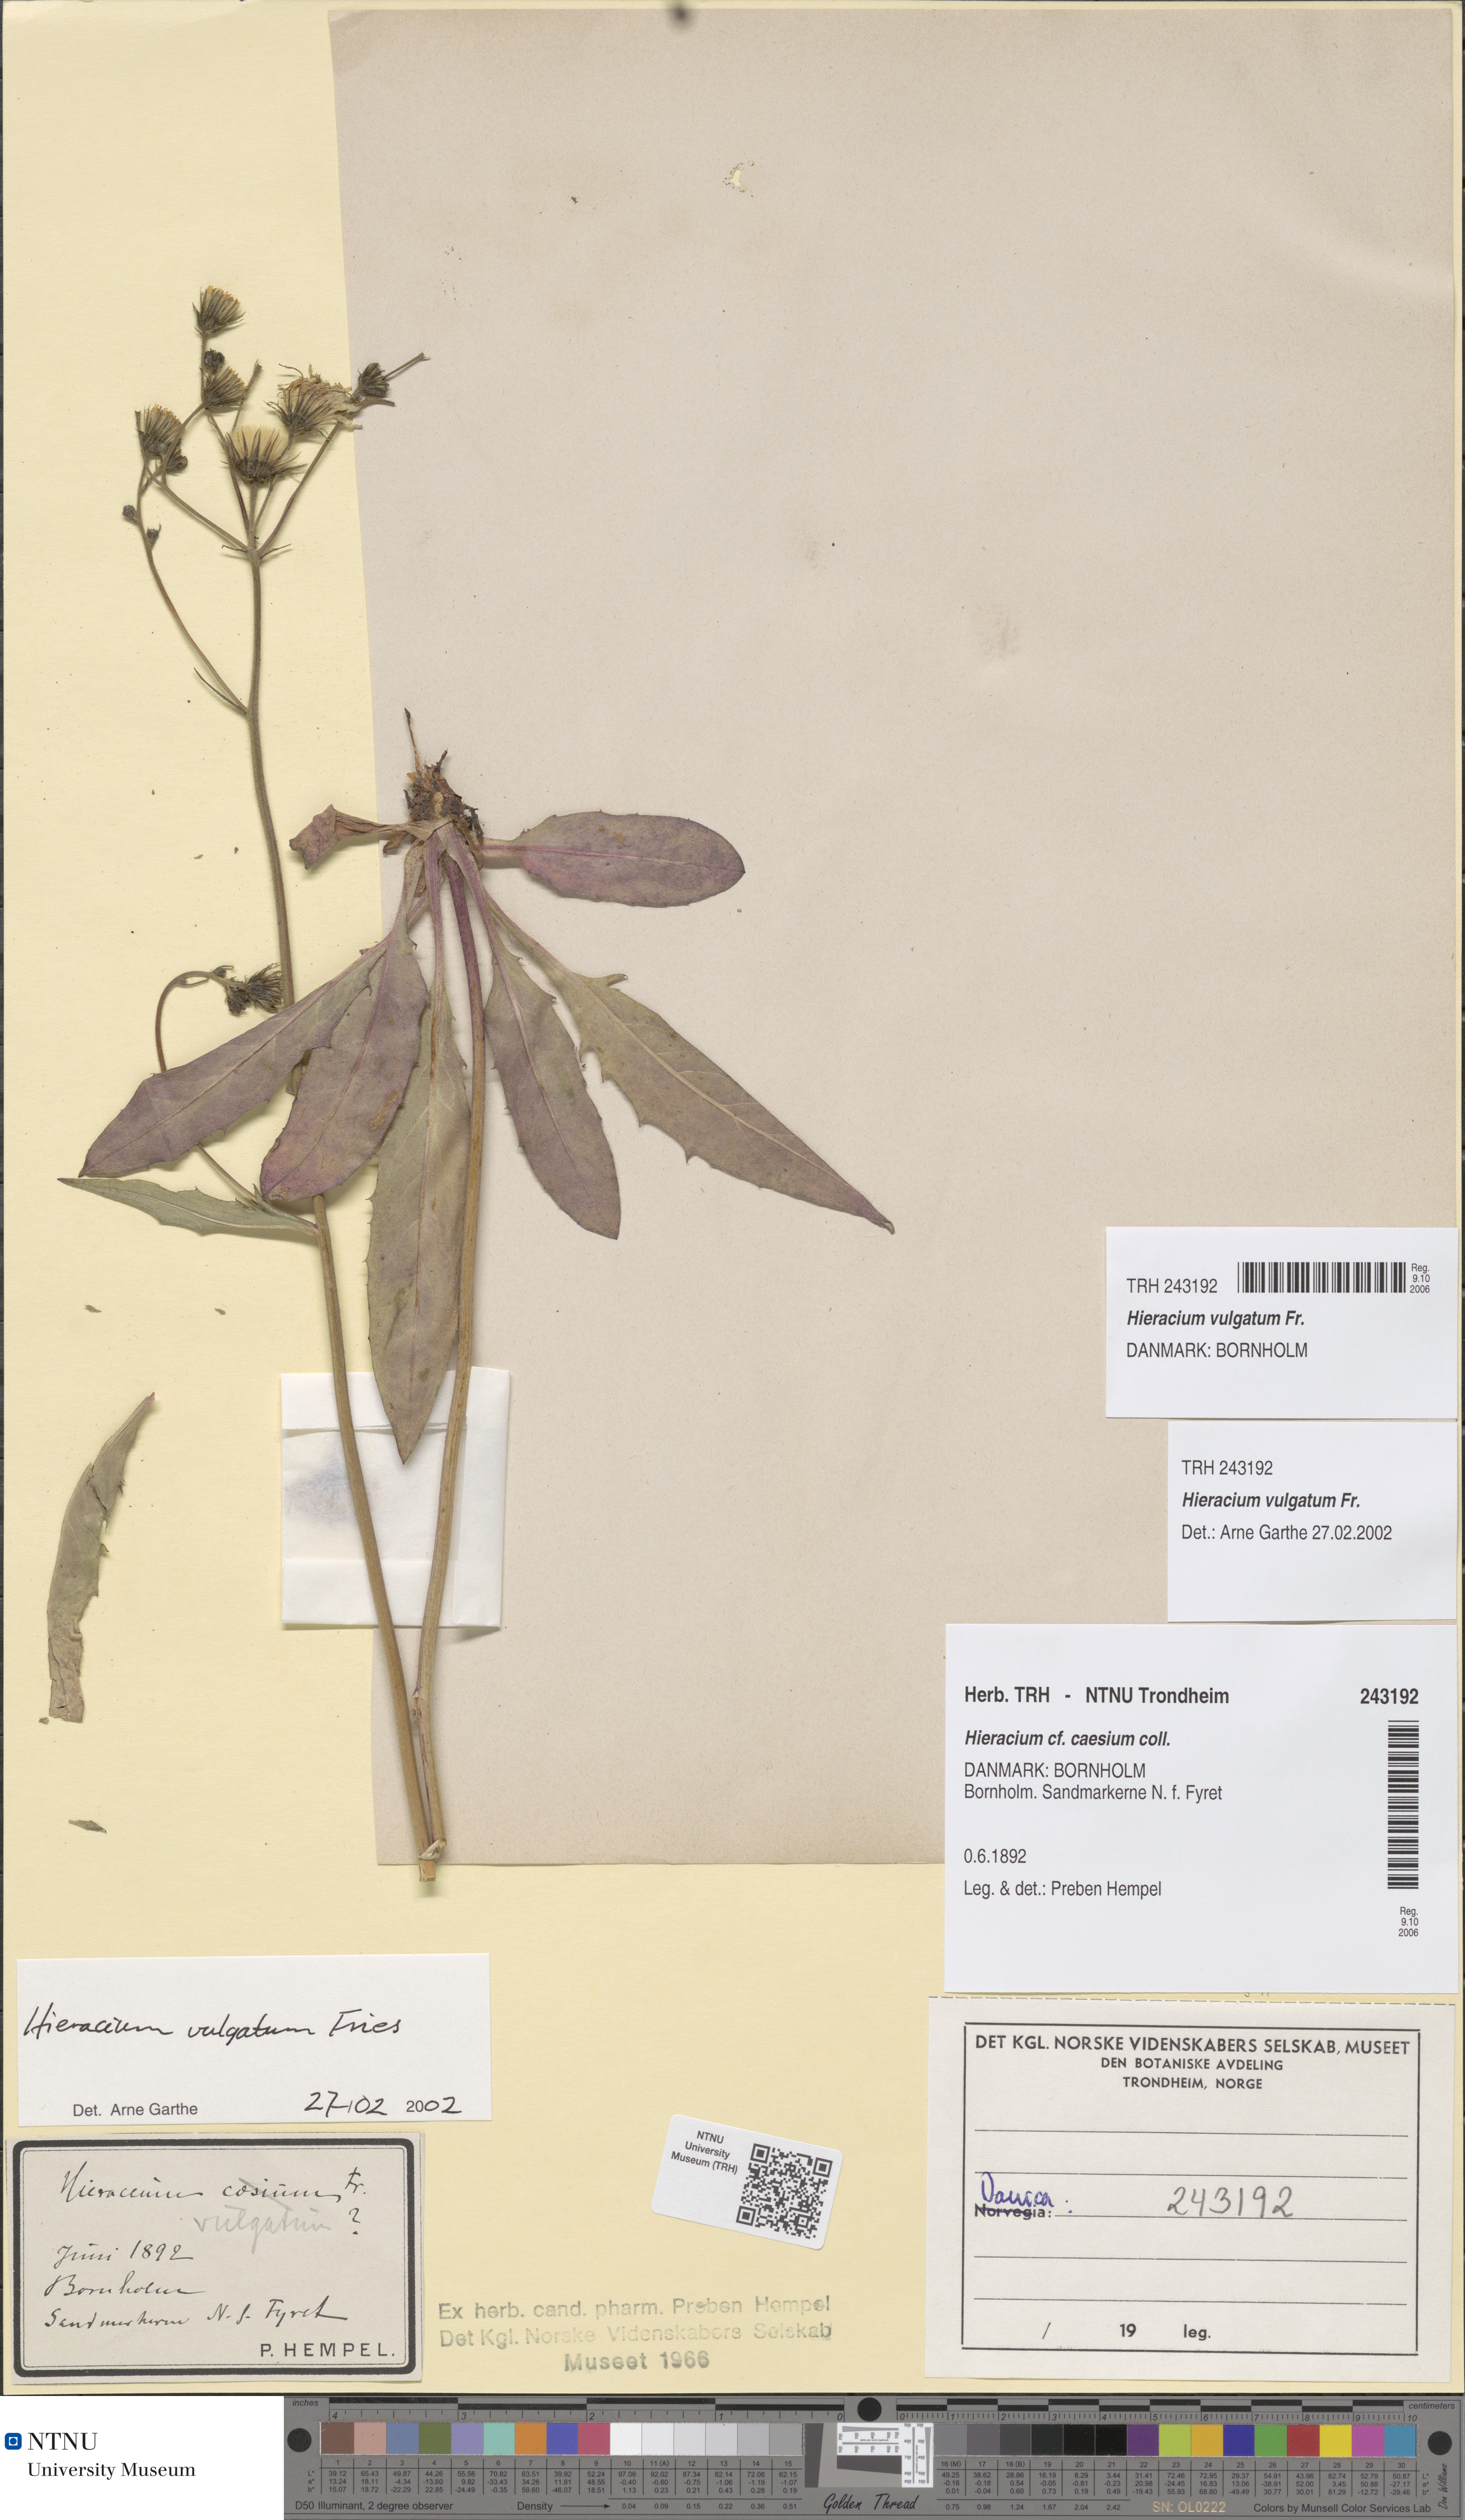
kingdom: Plantae
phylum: Tracheophyta
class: Magnoliopsida
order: Asterales
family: Asteraceae
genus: Hieracium
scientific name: Hieracium lachenalii
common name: Common hawkweed
